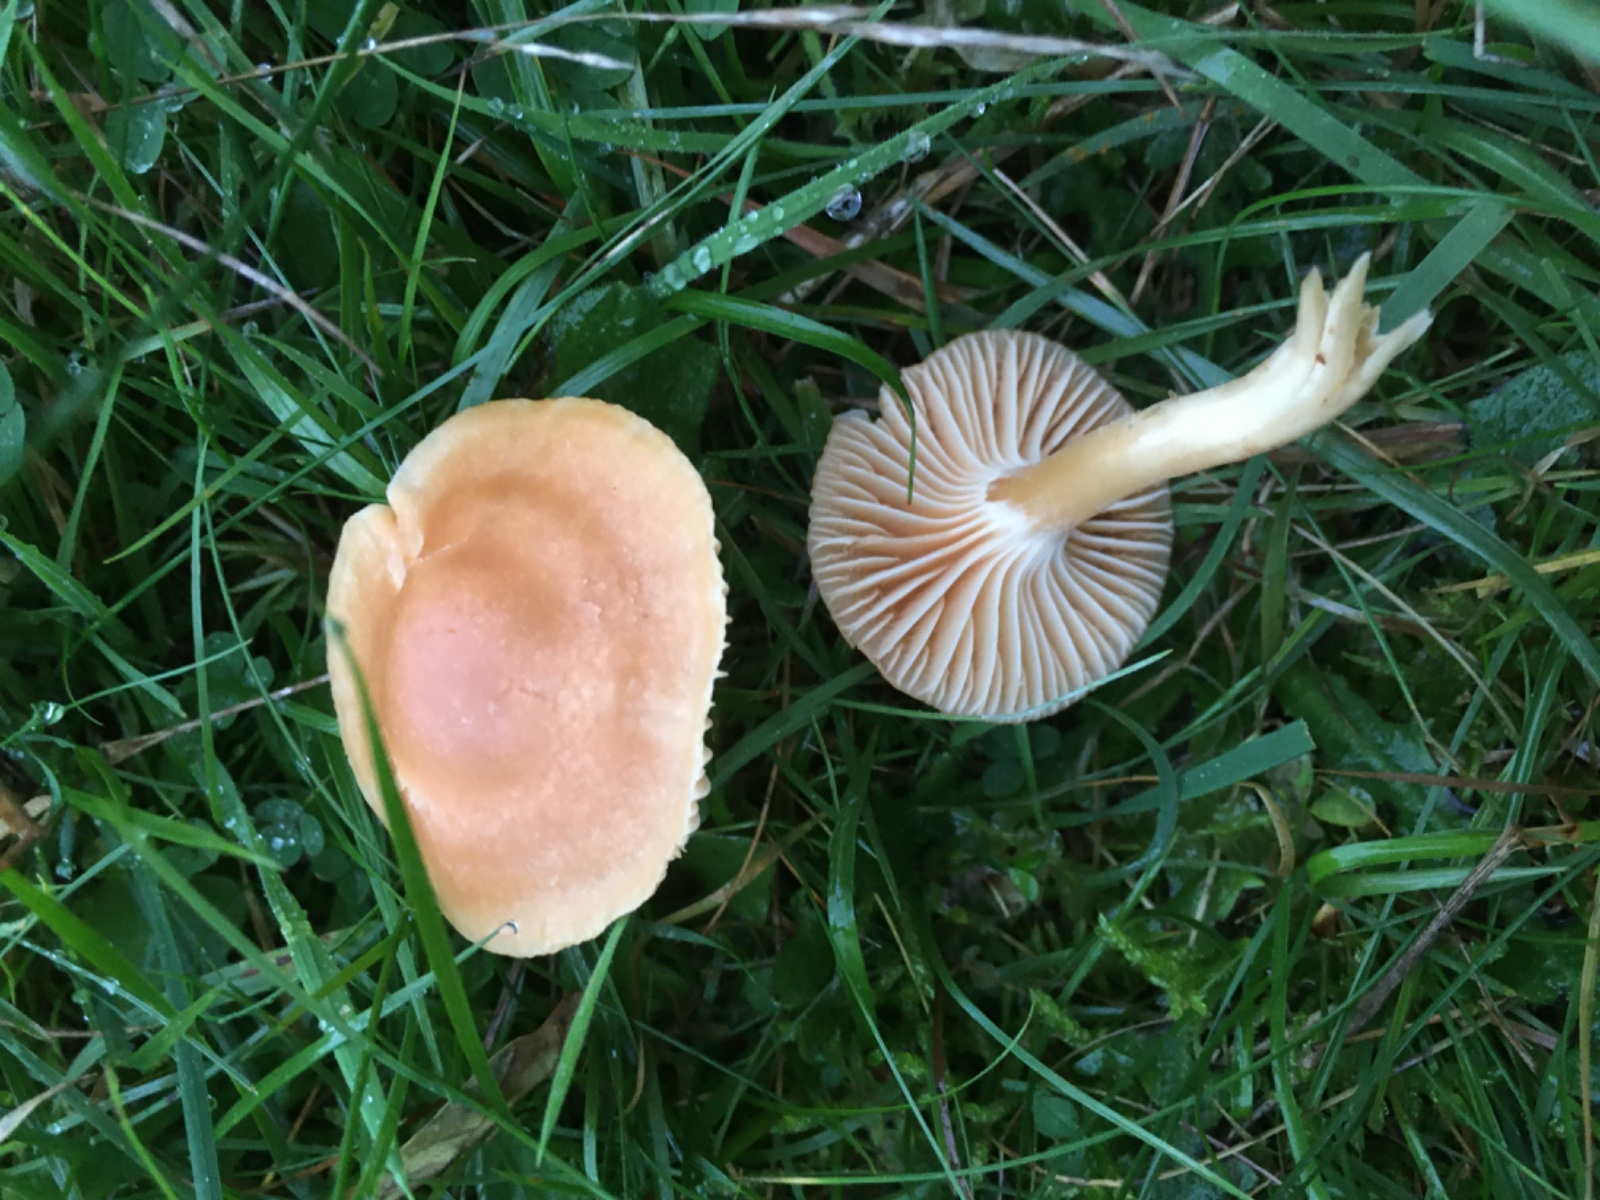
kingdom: Fungi
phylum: Basidiomycota
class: Agaricomycetes
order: Agaricales
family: Hygrophoraceae
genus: Cuphophyllus
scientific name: Cuphophyllus pratensis
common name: eng-vokshat
